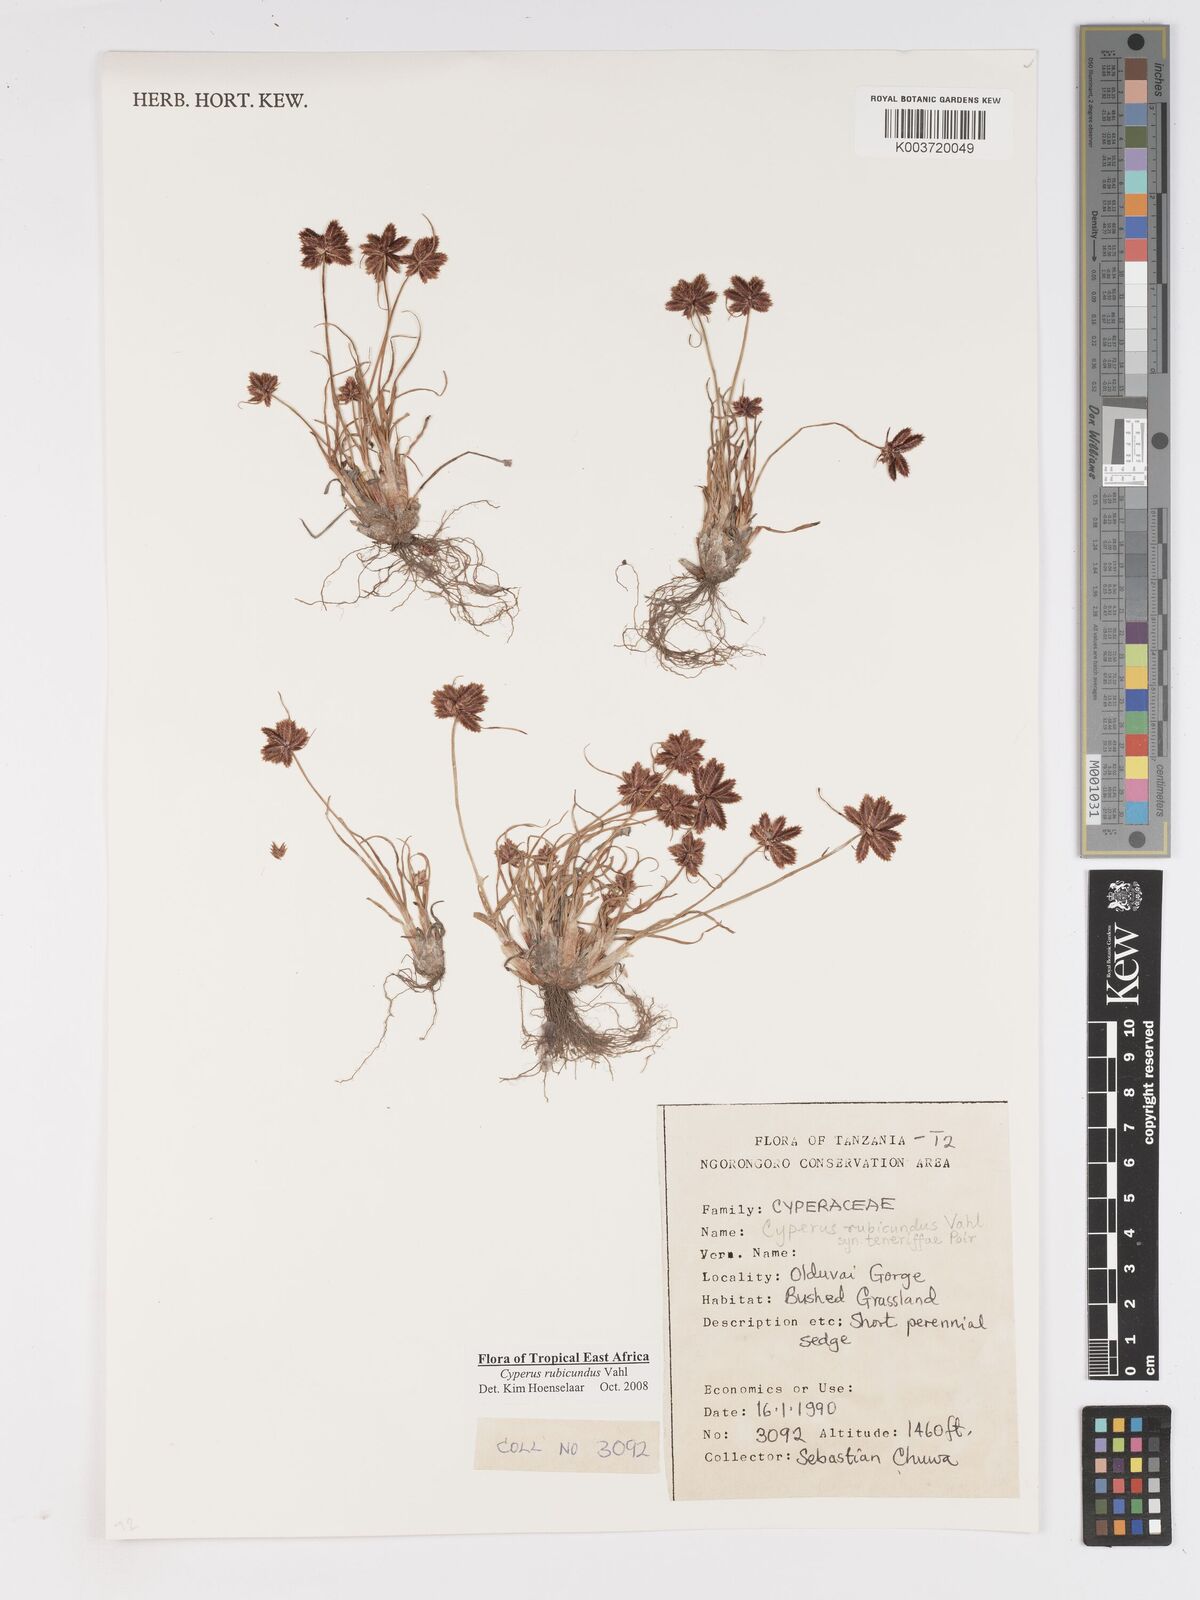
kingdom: Plantae
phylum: Tracheophyta
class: Liliopsida
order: Poales
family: Cyperaceae
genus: Cyperus
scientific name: Cyperus rubicundus
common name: Coco-grass
